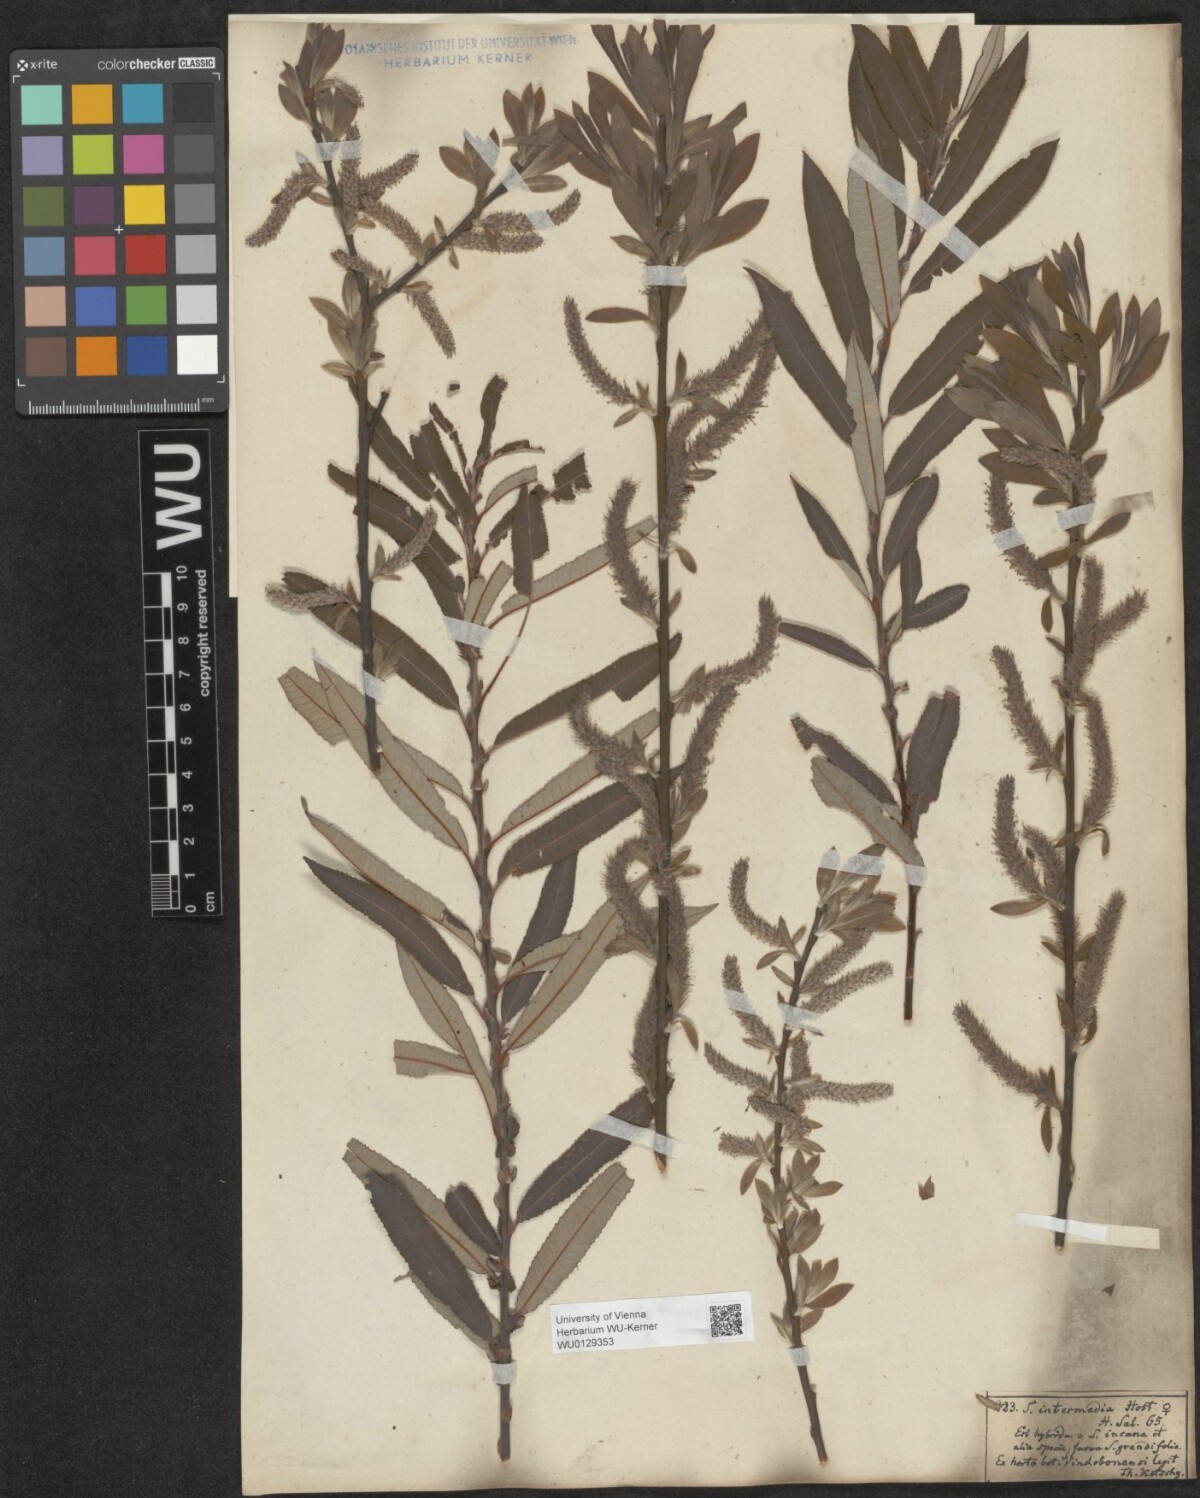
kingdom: Plantae
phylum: Tracheophyta
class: Magnoliopsida
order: Malpighiales
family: Salicaceae
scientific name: Salicaceae
